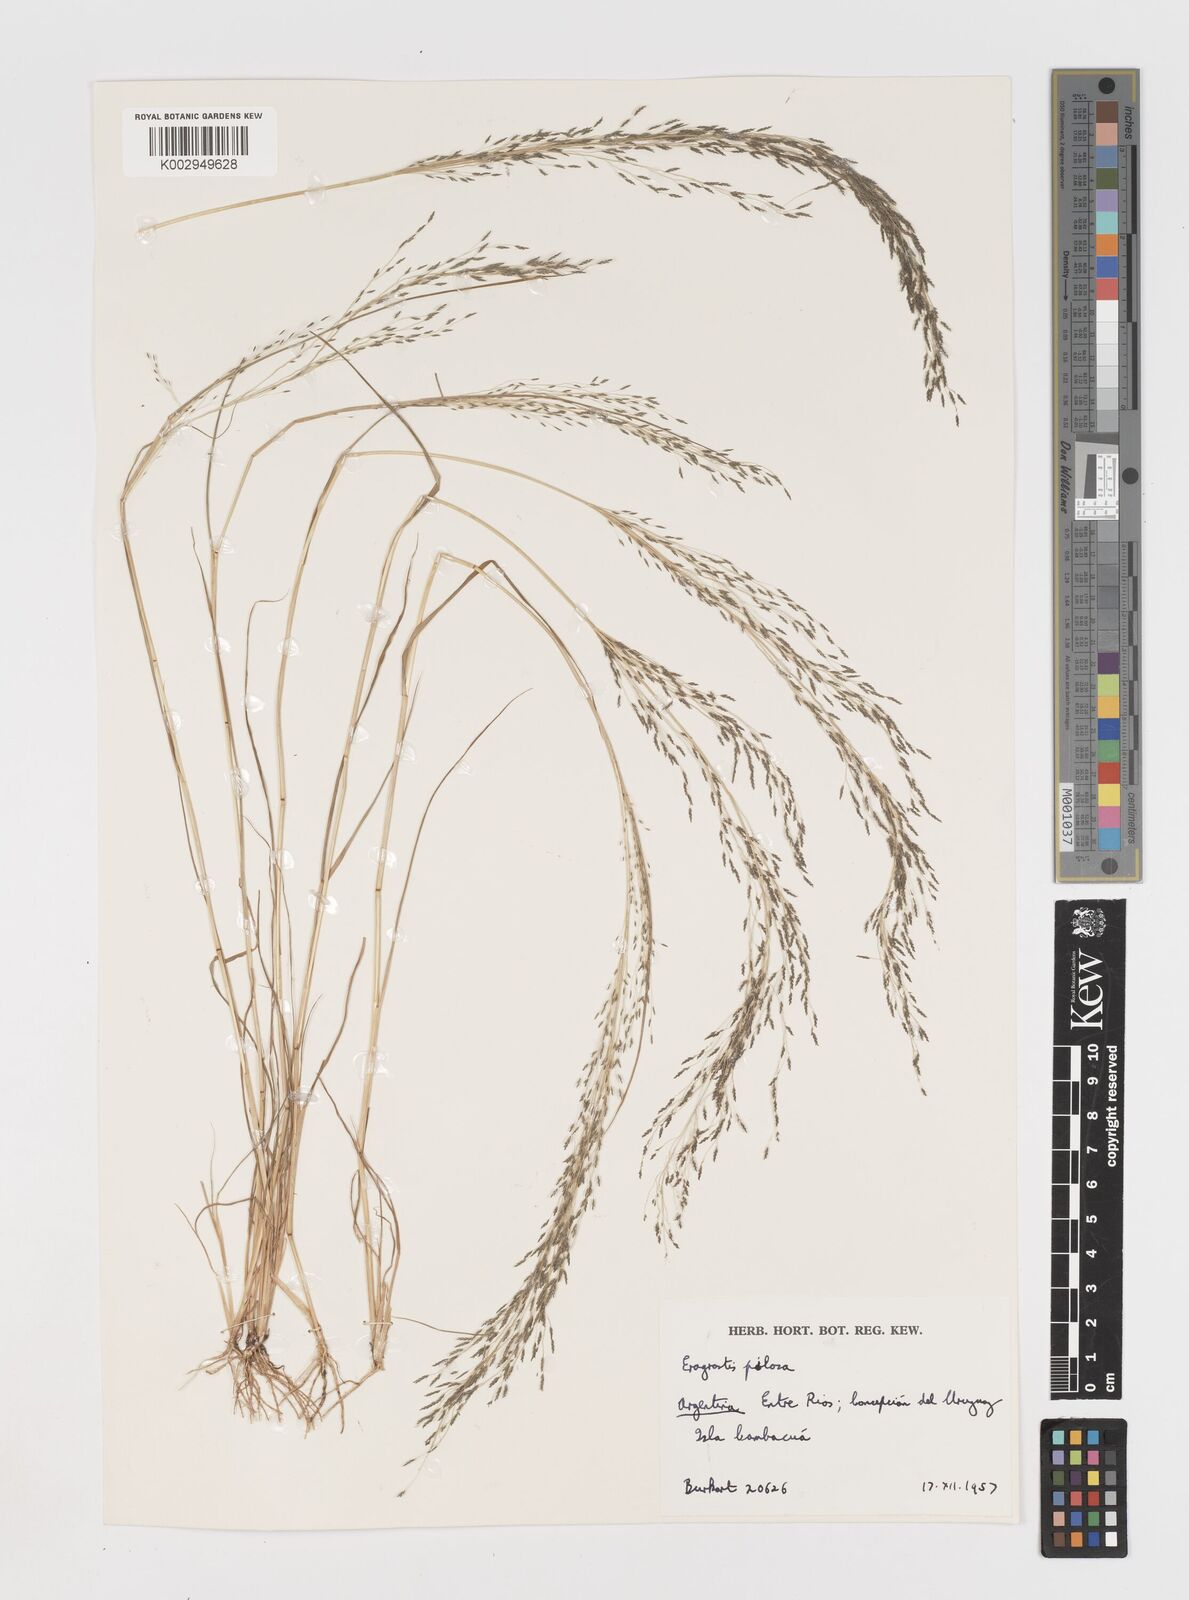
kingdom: Plantae
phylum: Tracheophyta
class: Liliopsida
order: Poales
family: Poaceae
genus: Eragrostis
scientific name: Eragrostis pilosa
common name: Indian lovegrass
